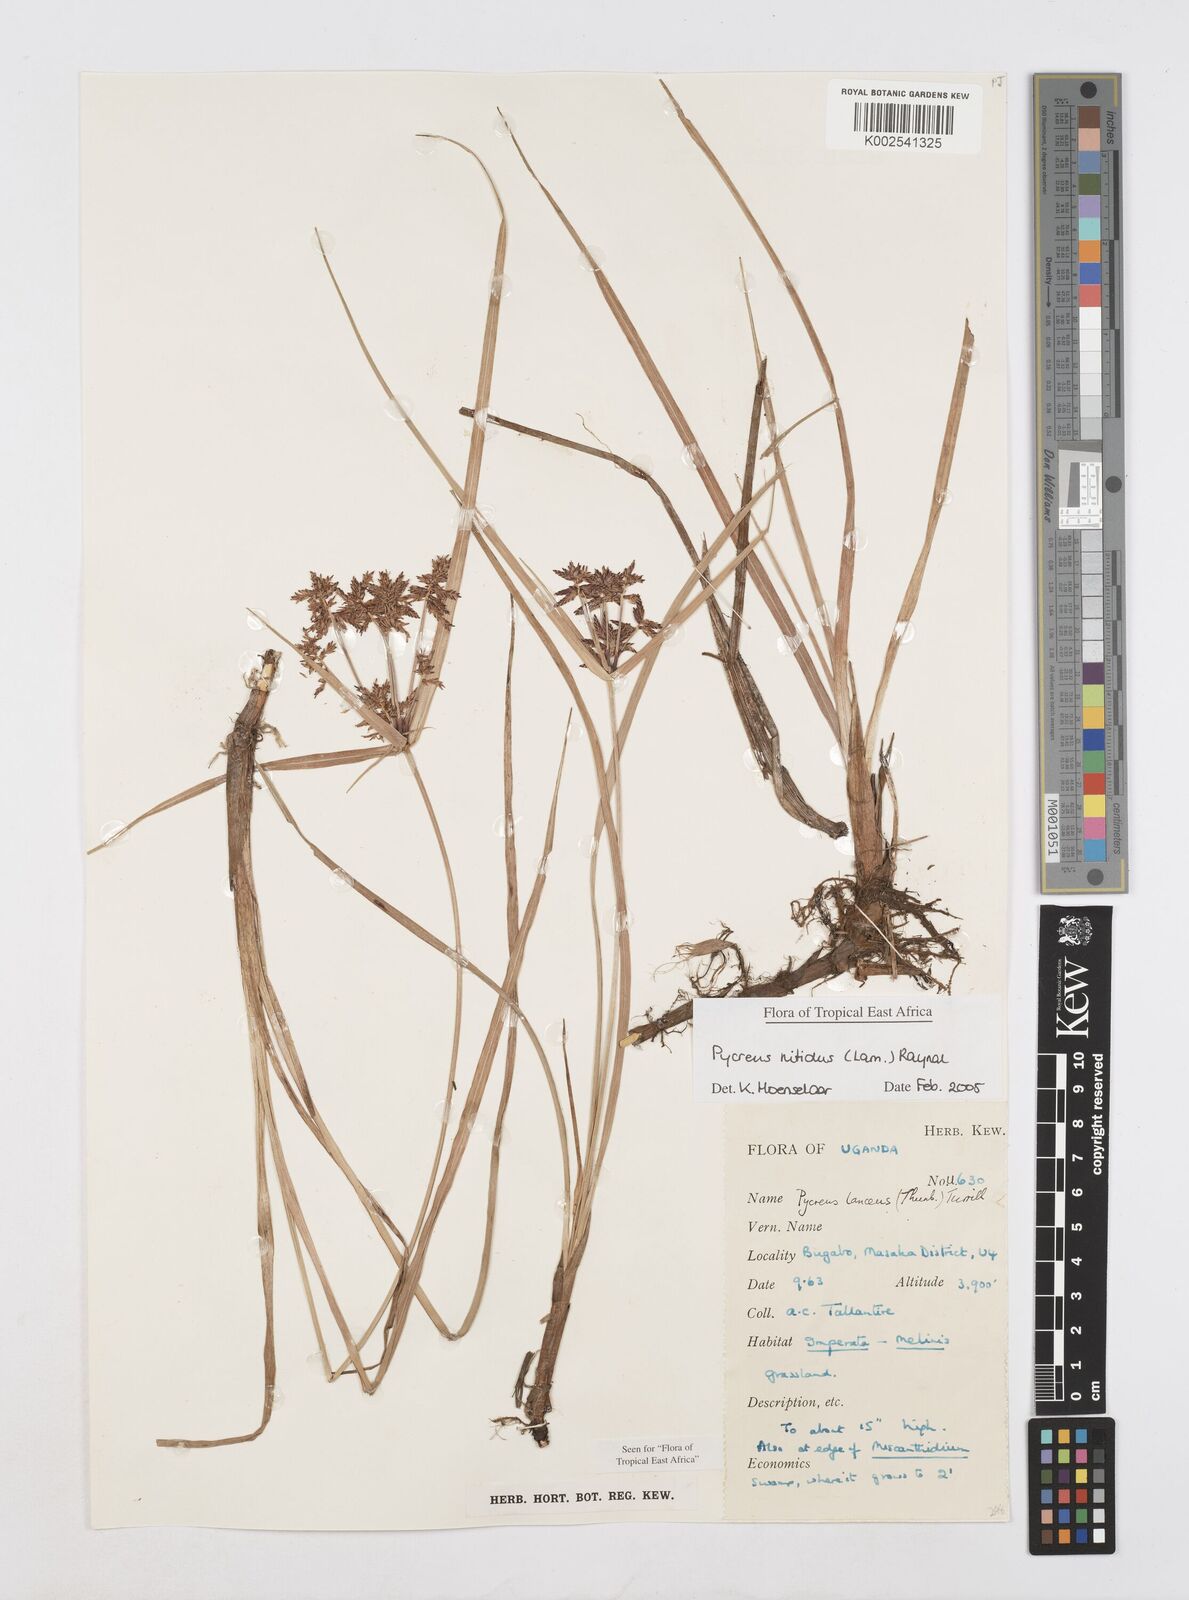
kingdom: Plantae
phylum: Tracheophyta
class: Liliopsida
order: Poales
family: Cyperaceae
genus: Cyperus
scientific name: Cyperus nitidus
